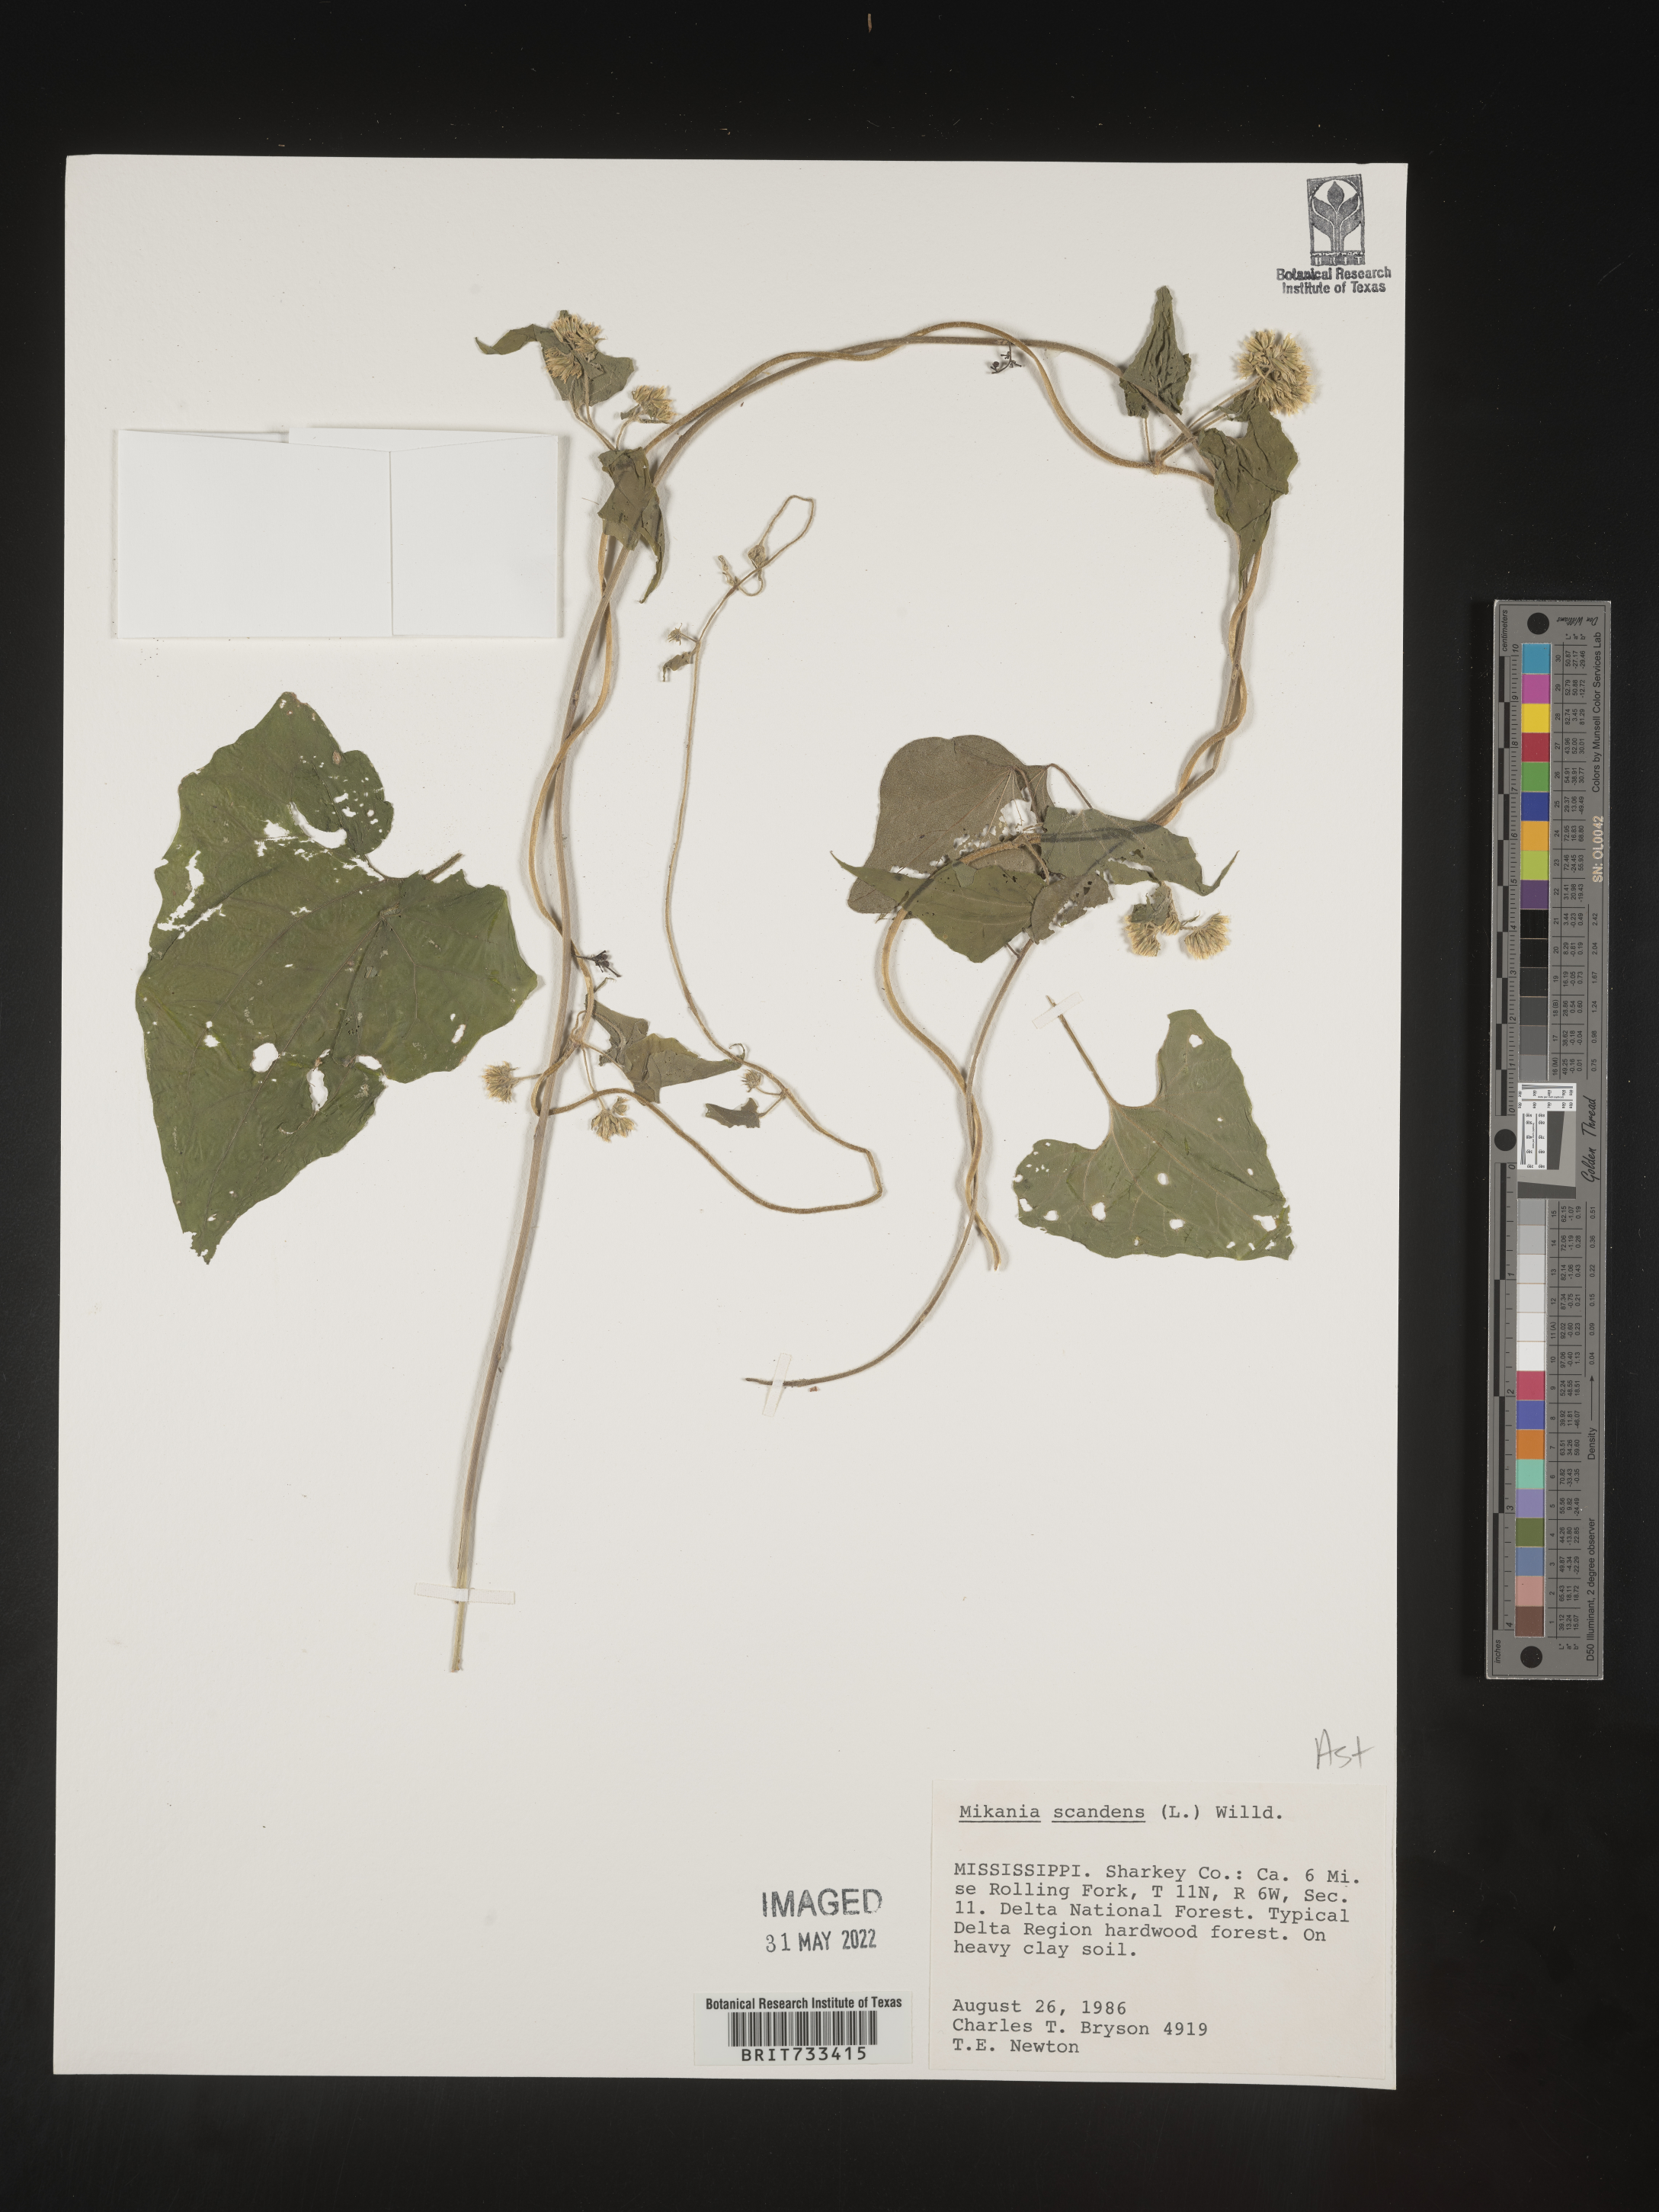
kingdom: Plantae
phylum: Tracheophyta
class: Magnoliopsida
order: Asterales
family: Asteraceae
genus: Mikania
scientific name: Mikania scandens
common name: Climbing hempvine
